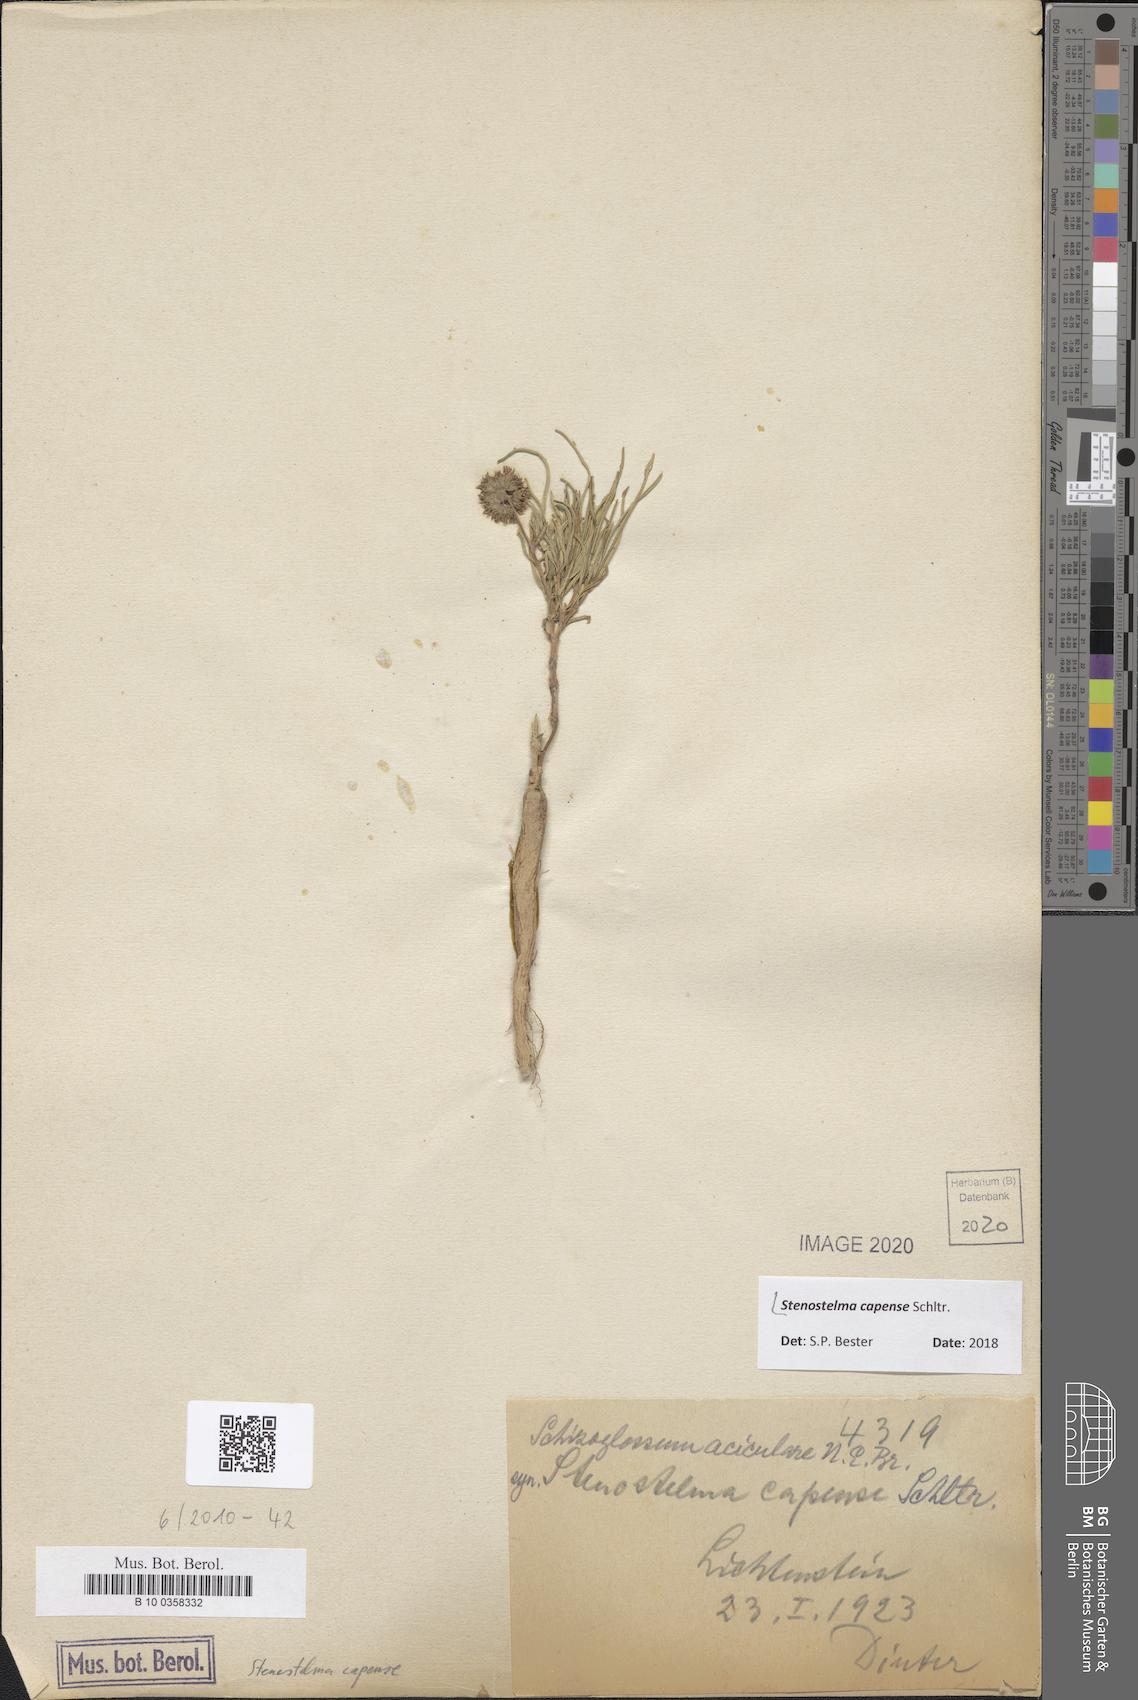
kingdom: Plantae
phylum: Tracheophyta
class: Magnoliopsida
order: Gentianales
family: Apocynaceae
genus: Stenostelma
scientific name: Stenostelma capense
